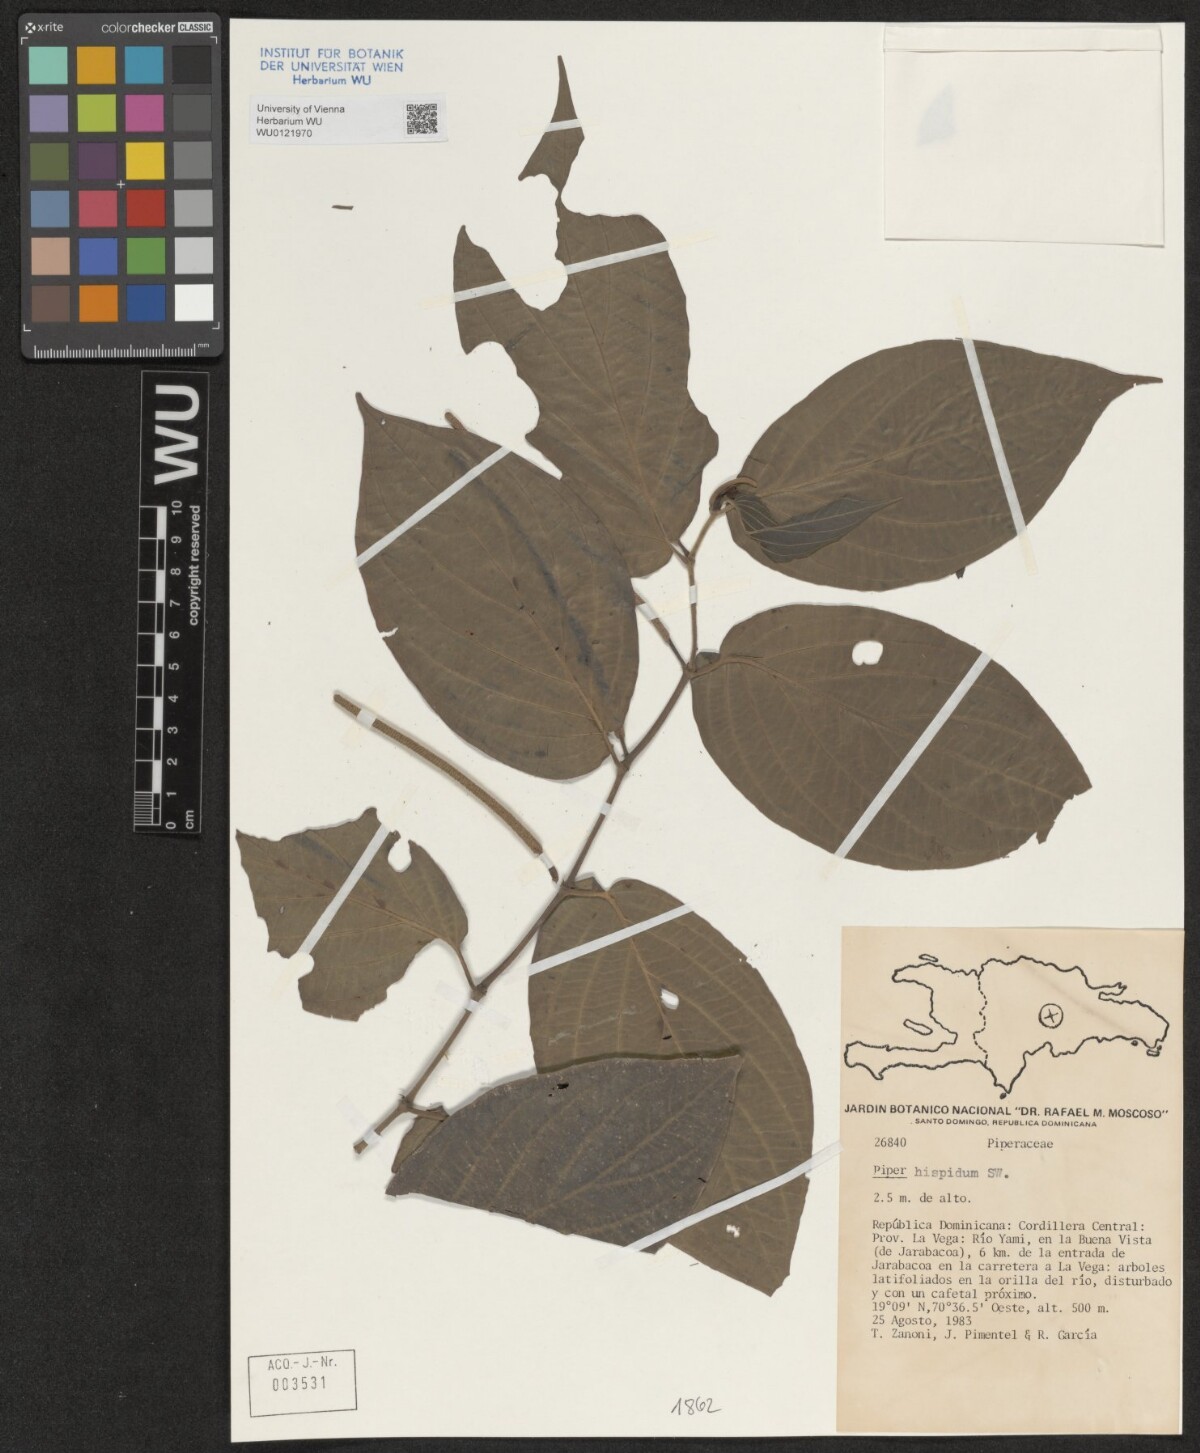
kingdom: Plantae
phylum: Tracheophyta
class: Magnoliopsida
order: Piperales
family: Piperaceae
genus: Piper
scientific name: Piper hispidum
